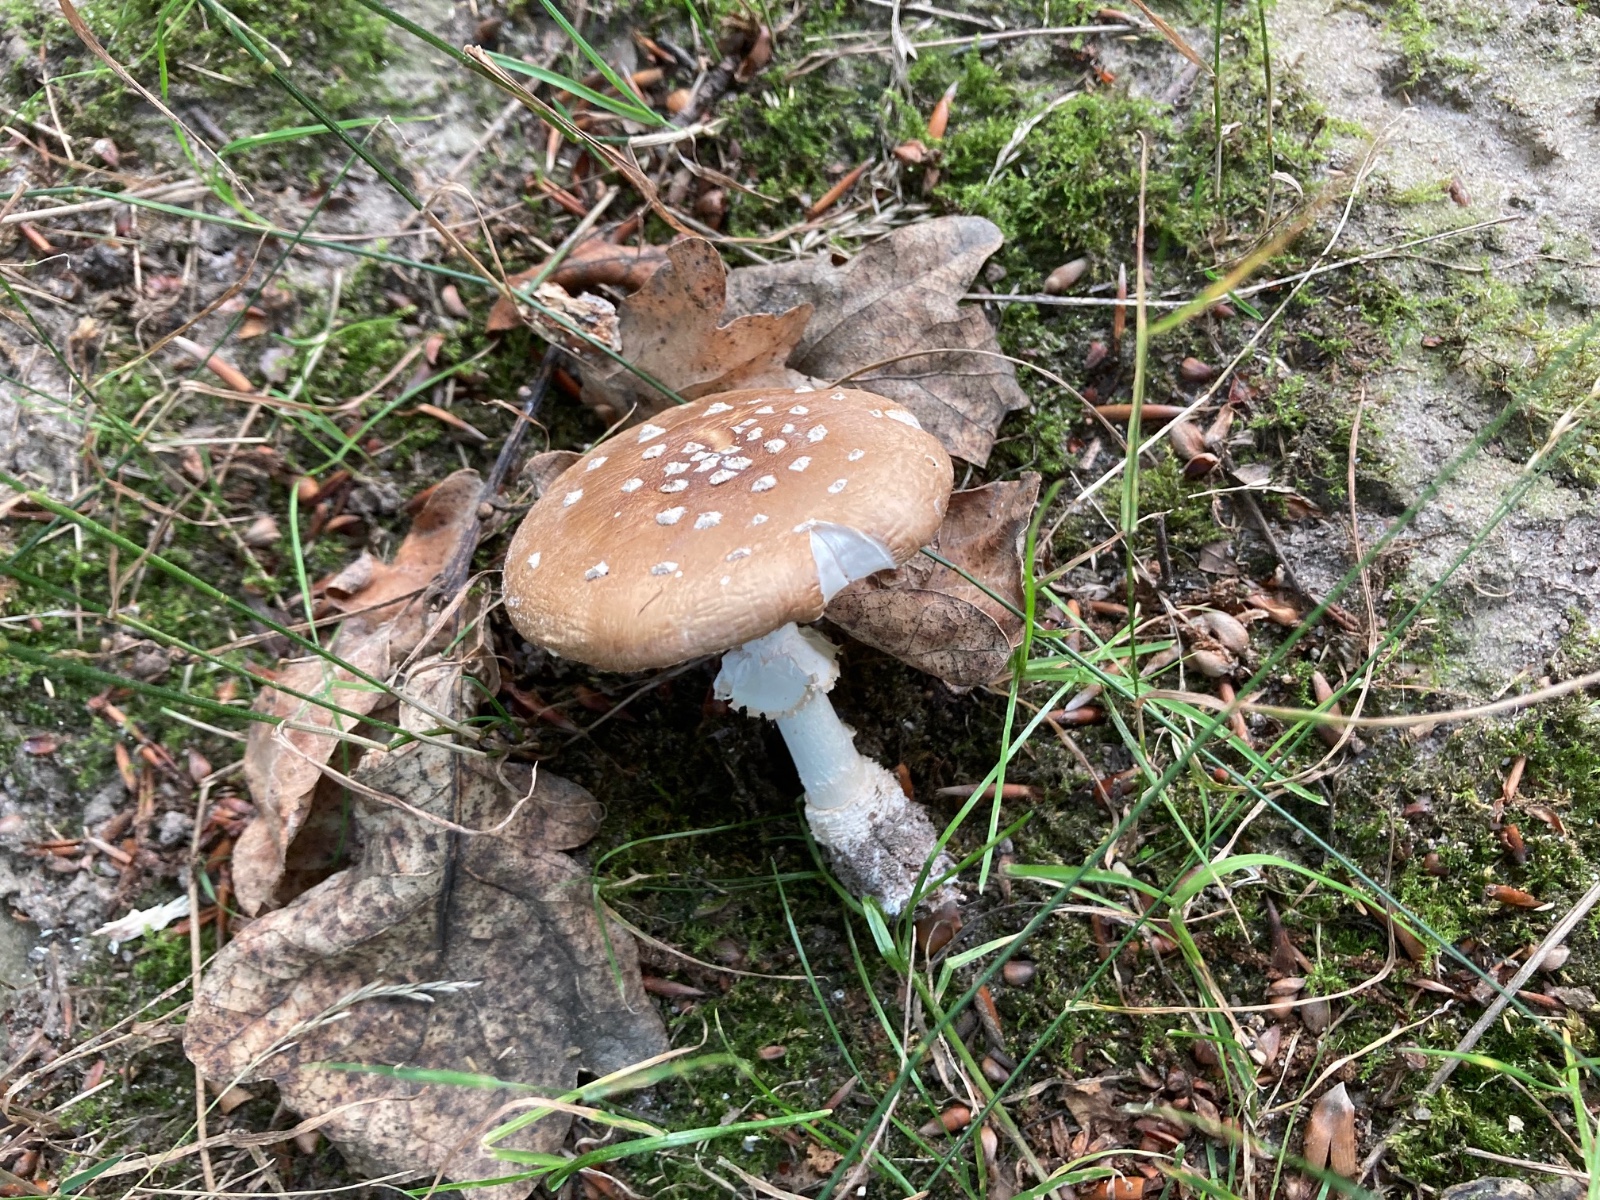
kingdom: Fungi
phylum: Basidiomycota
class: Agaricomycetes
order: Agaricales
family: Amanitaceae
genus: Amanita
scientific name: Amanita pantherina
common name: panter-fluesvamp
